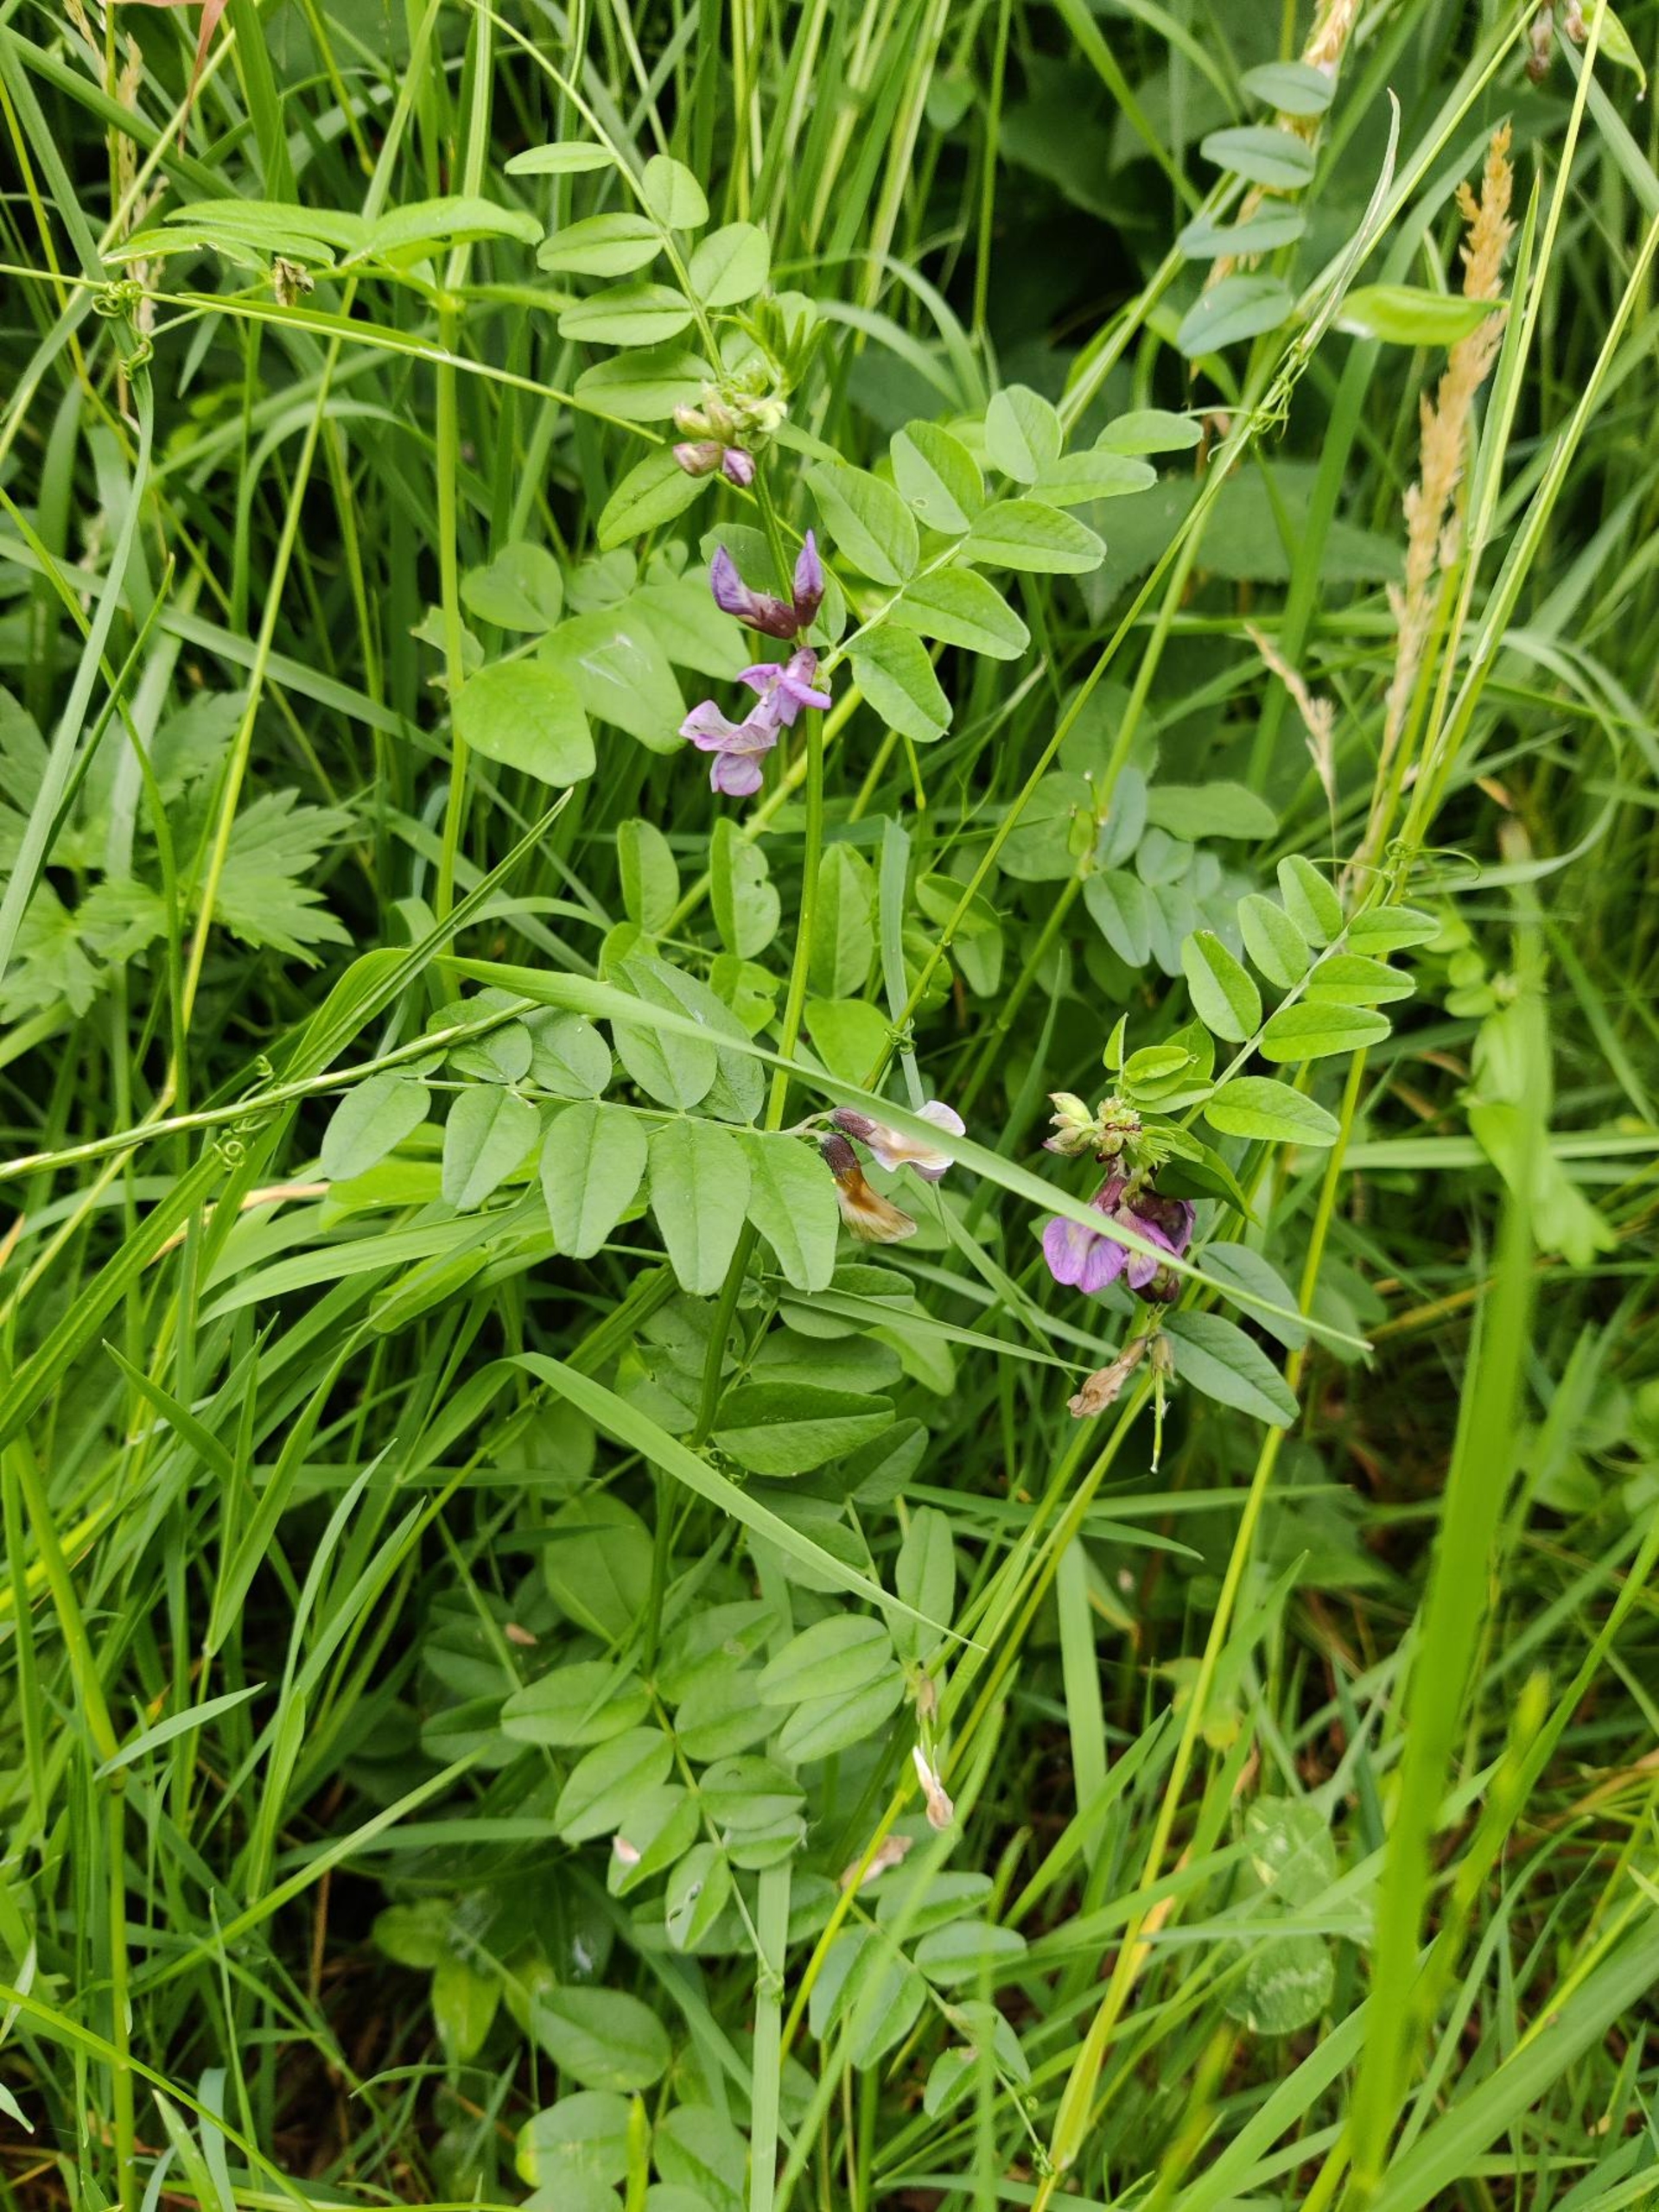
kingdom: Plantae
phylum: Tracheophyta
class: Magnoliopsida
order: Fabales
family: Fabaceae
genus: Vicia
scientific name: Vicia sepium
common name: Gærde-vikke
